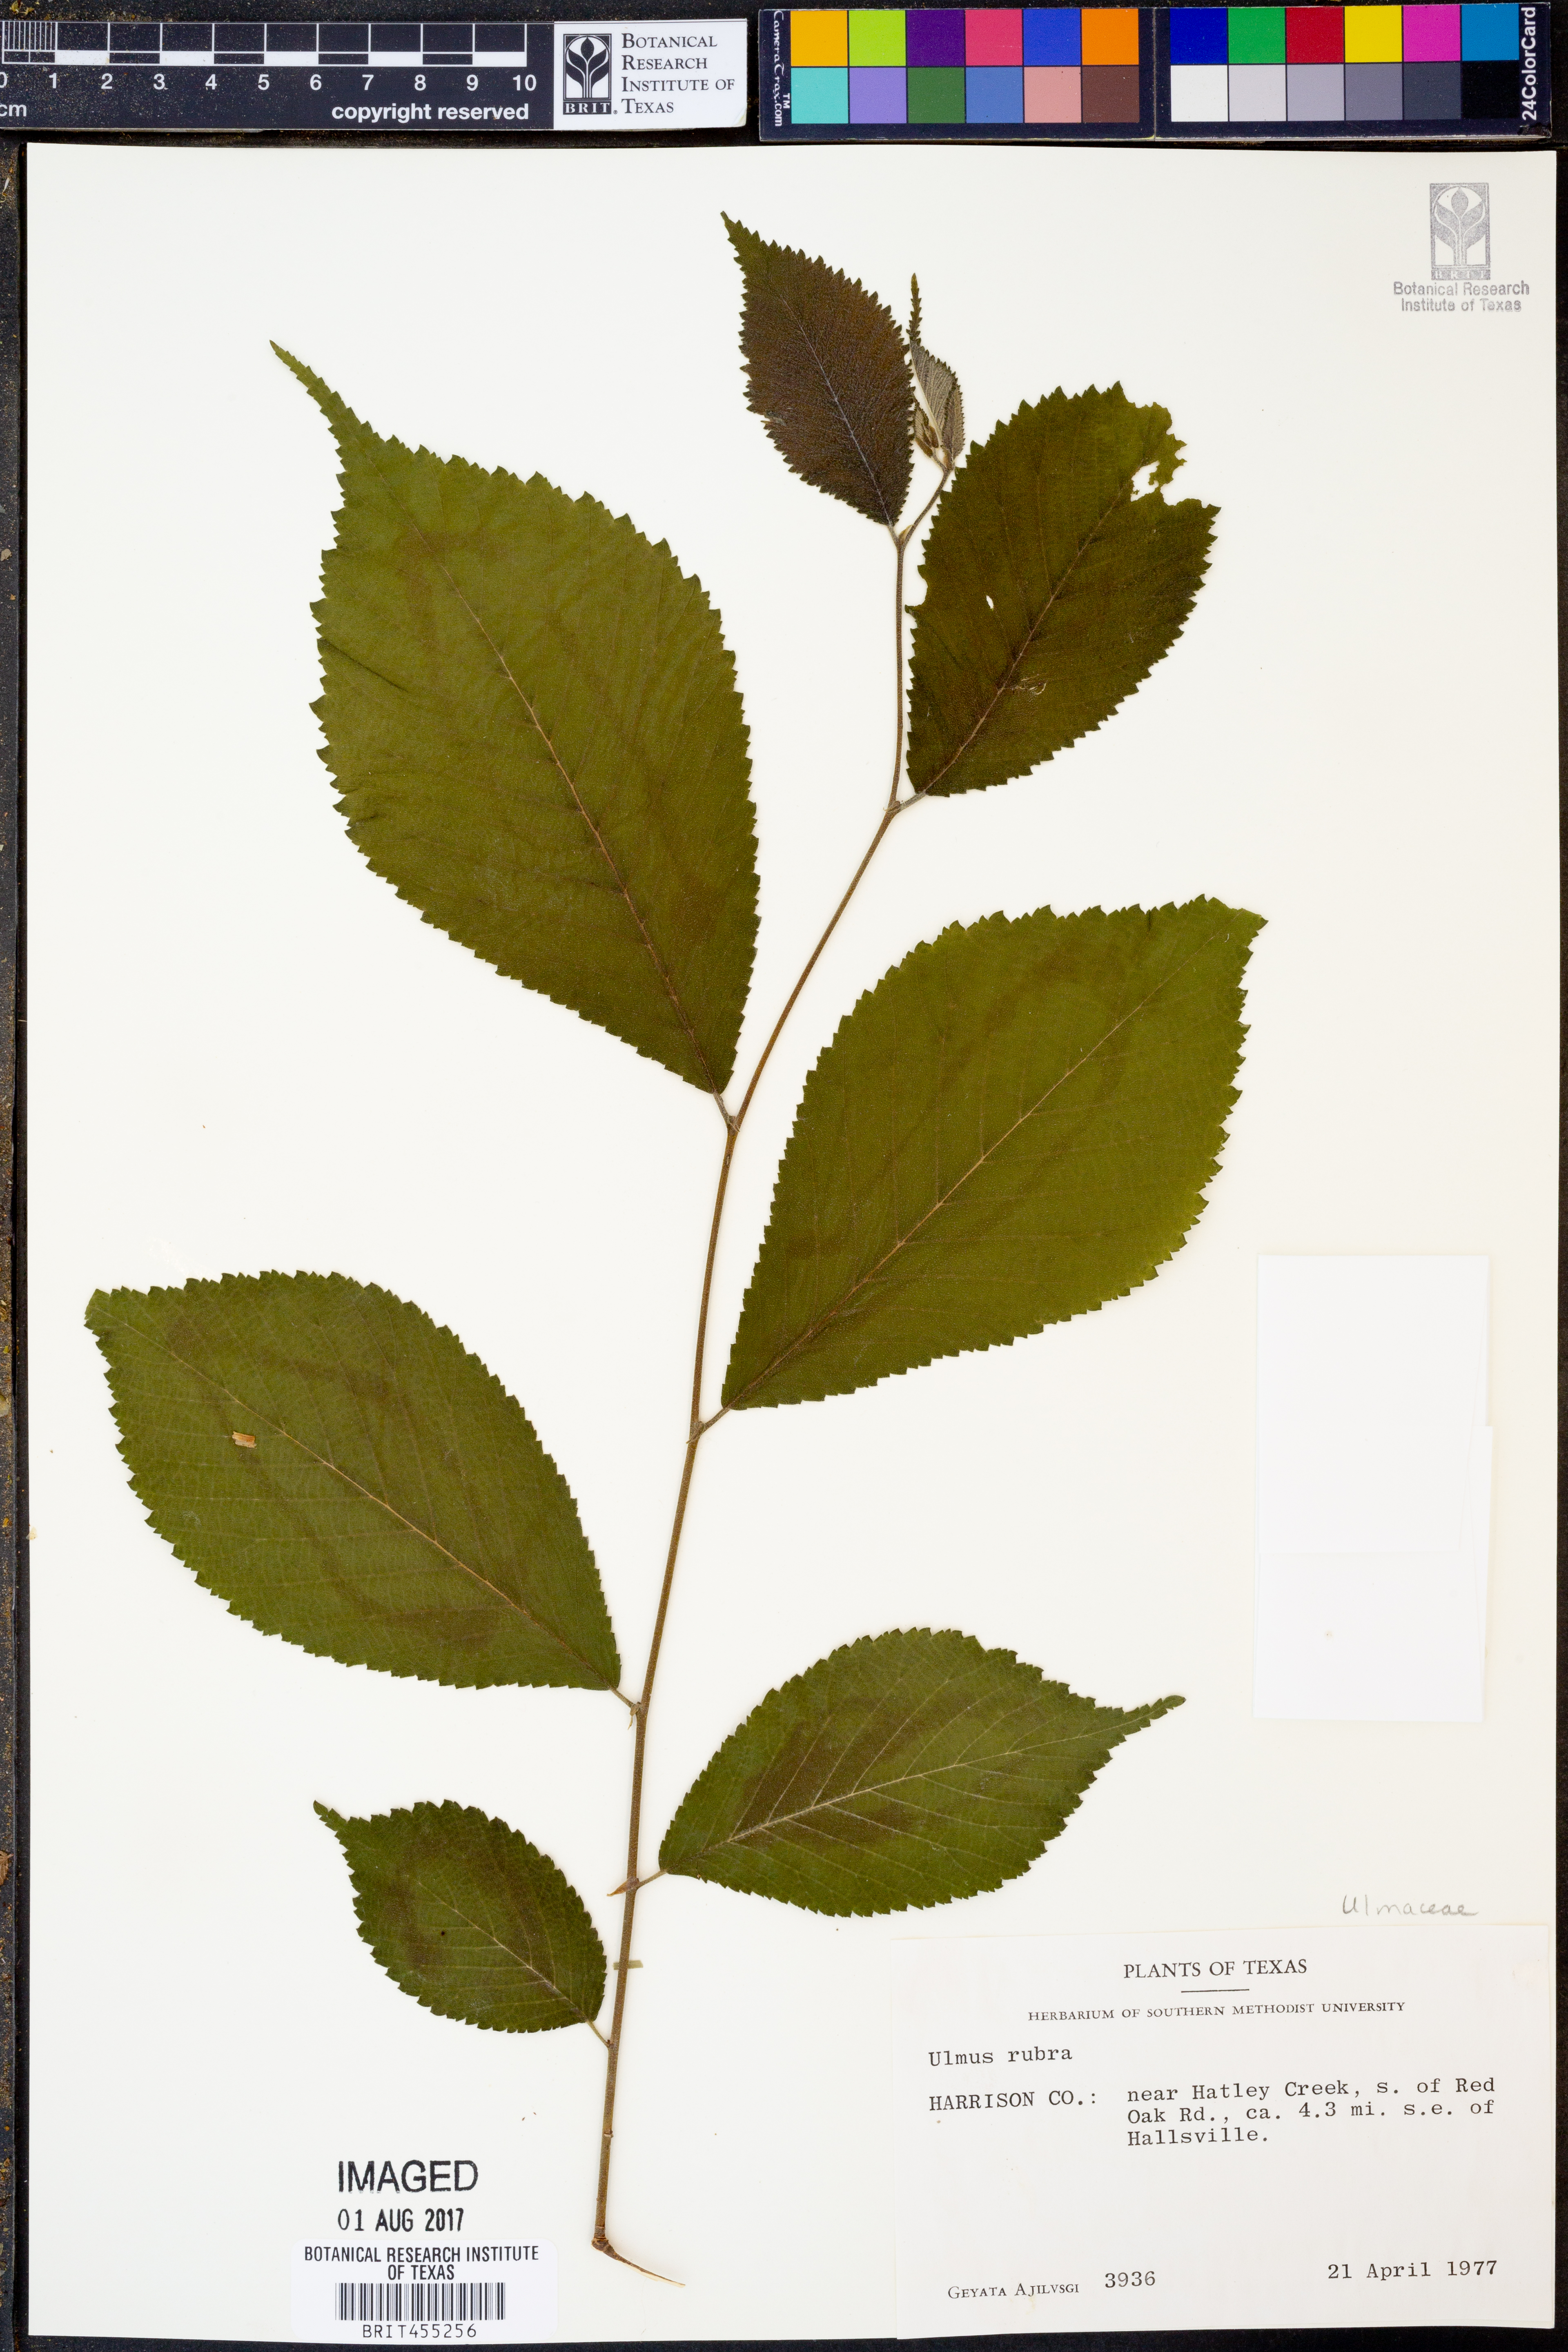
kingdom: Plantae
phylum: Tracheophyta
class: Magnoliopsida
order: Rosales
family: Ulmaceae
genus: Ulmus
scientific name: Ulmus rubra
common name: Slippery elm
